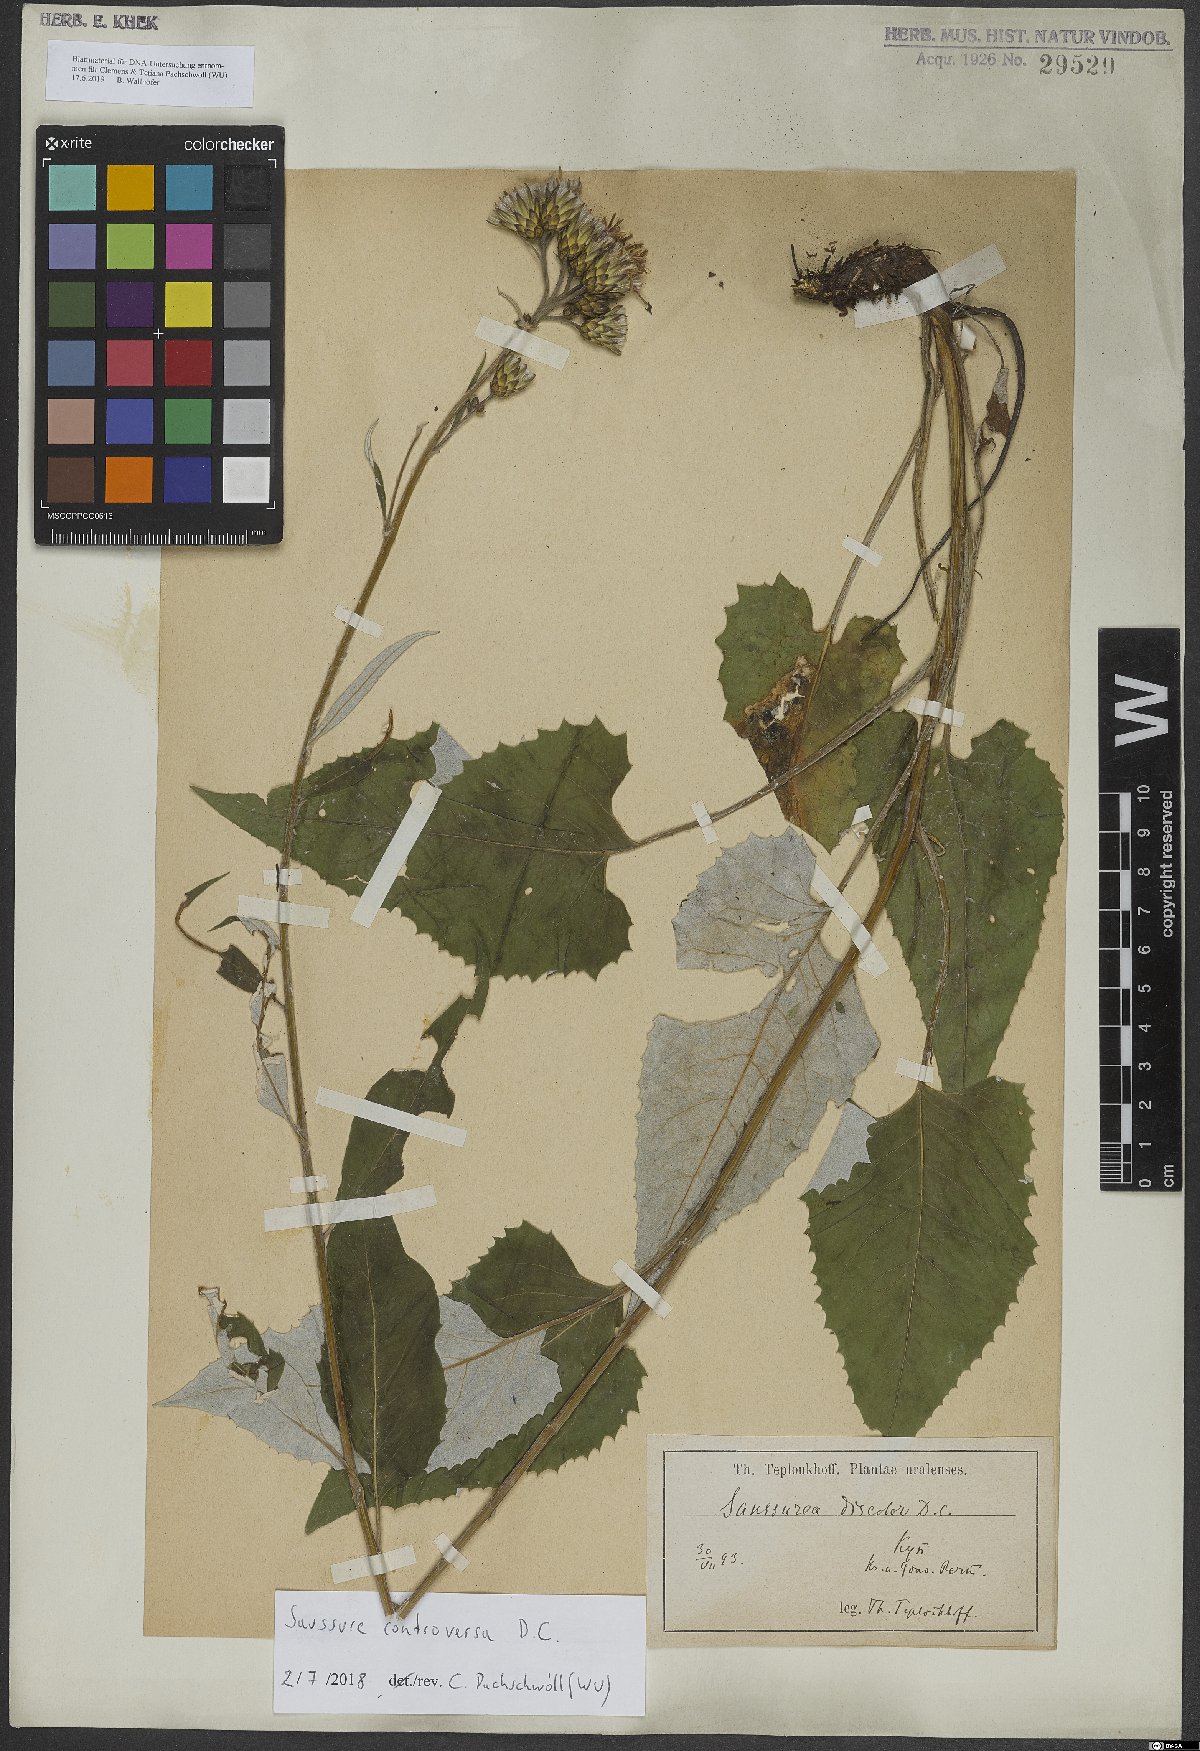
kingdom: Plantae
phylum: Tracheophyta
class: Magnoliopsida
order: Asterales
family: Asteraceae
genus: Saussurea
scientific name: Saussurea controversa
